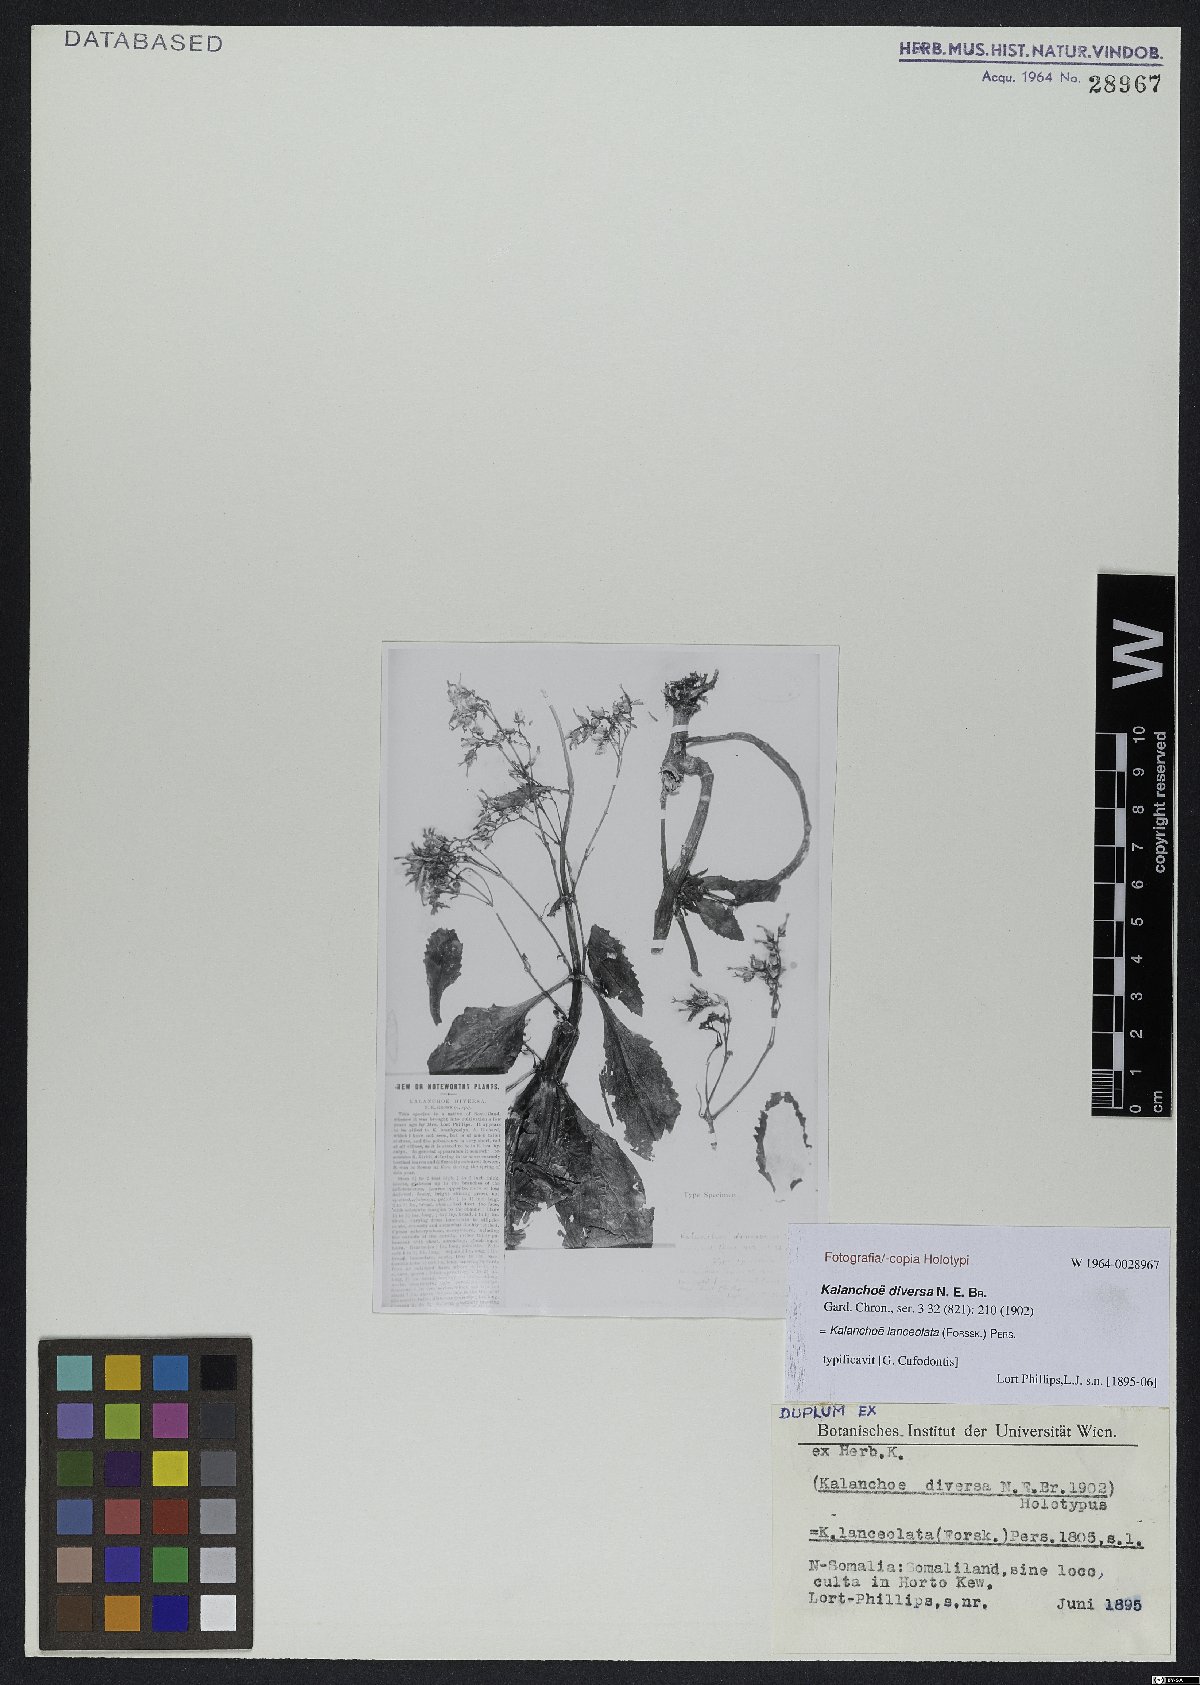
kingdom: Plantae
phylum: Tracheophyta
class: Magnoliopsida
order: Saxifragales
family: Crassulaceae
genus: Kalanchoe
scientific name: Kalanchoe lanceolata
